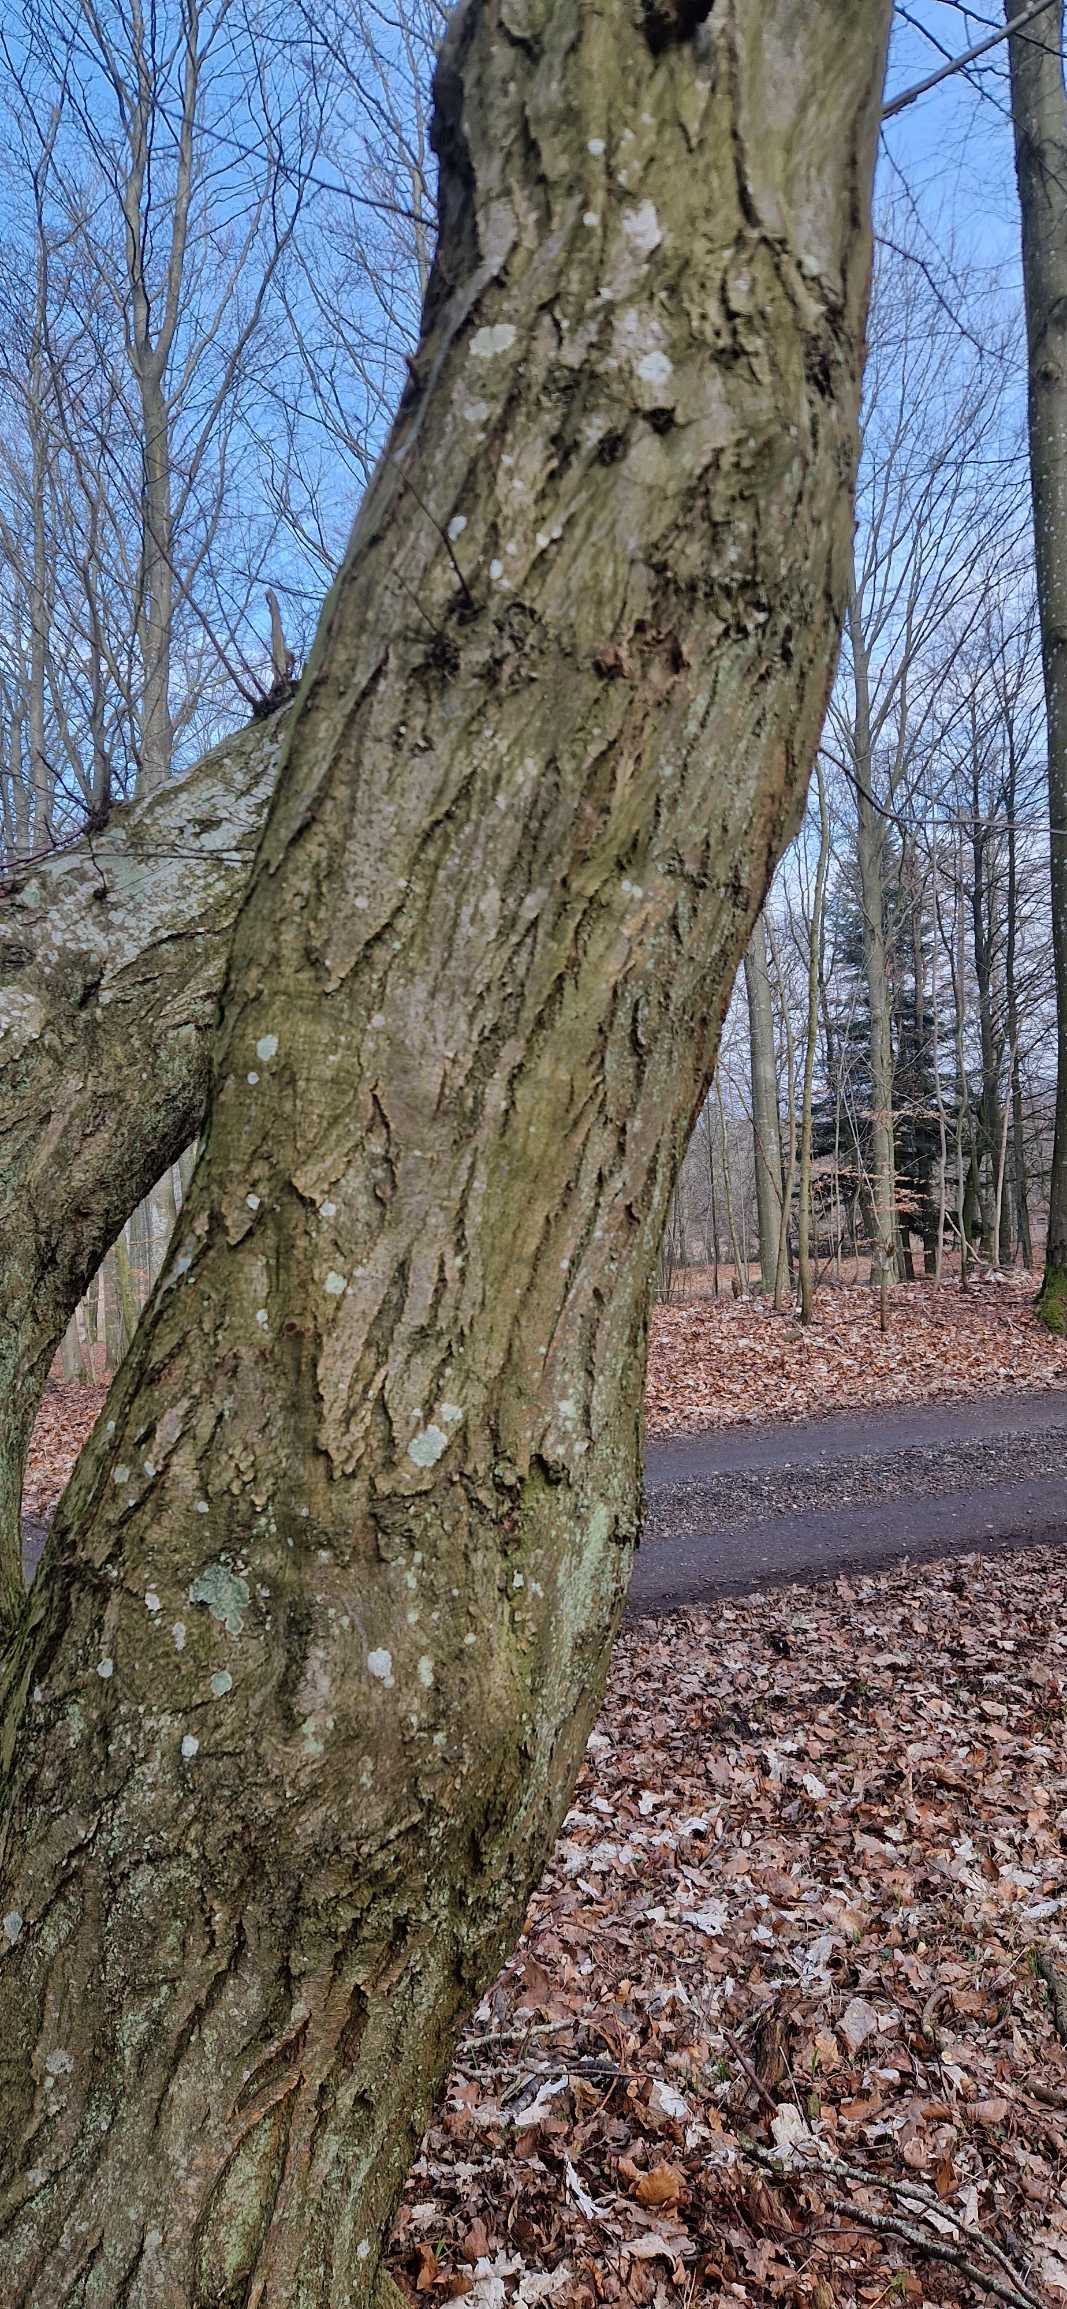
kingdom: Plantae
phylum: Tracheophyta
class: Magnoliopsida
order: Fagales
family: Betulaceae
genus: Carpinus
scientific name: Carpinus betulus
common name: Avnbøg
